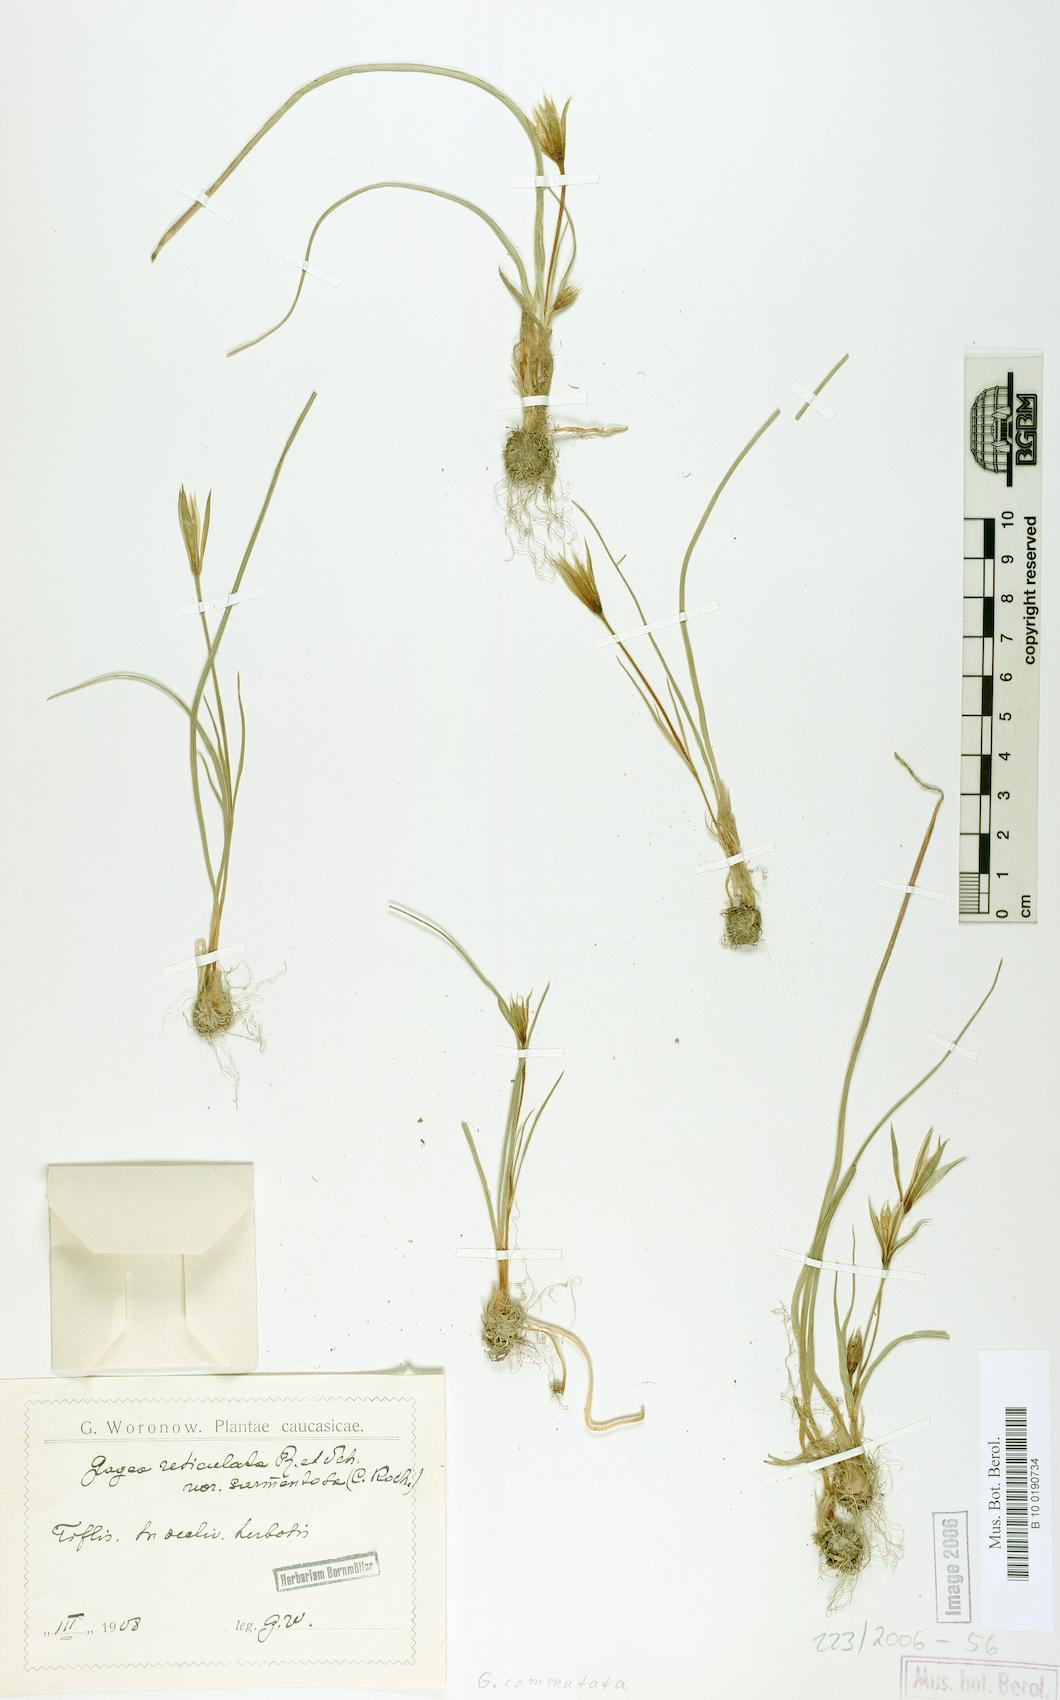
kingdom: Plantae
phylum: Tracheophyta
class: Liliopsida
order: Liliales
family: Liliaceae
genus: Gagea
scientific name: Gagea commutata
